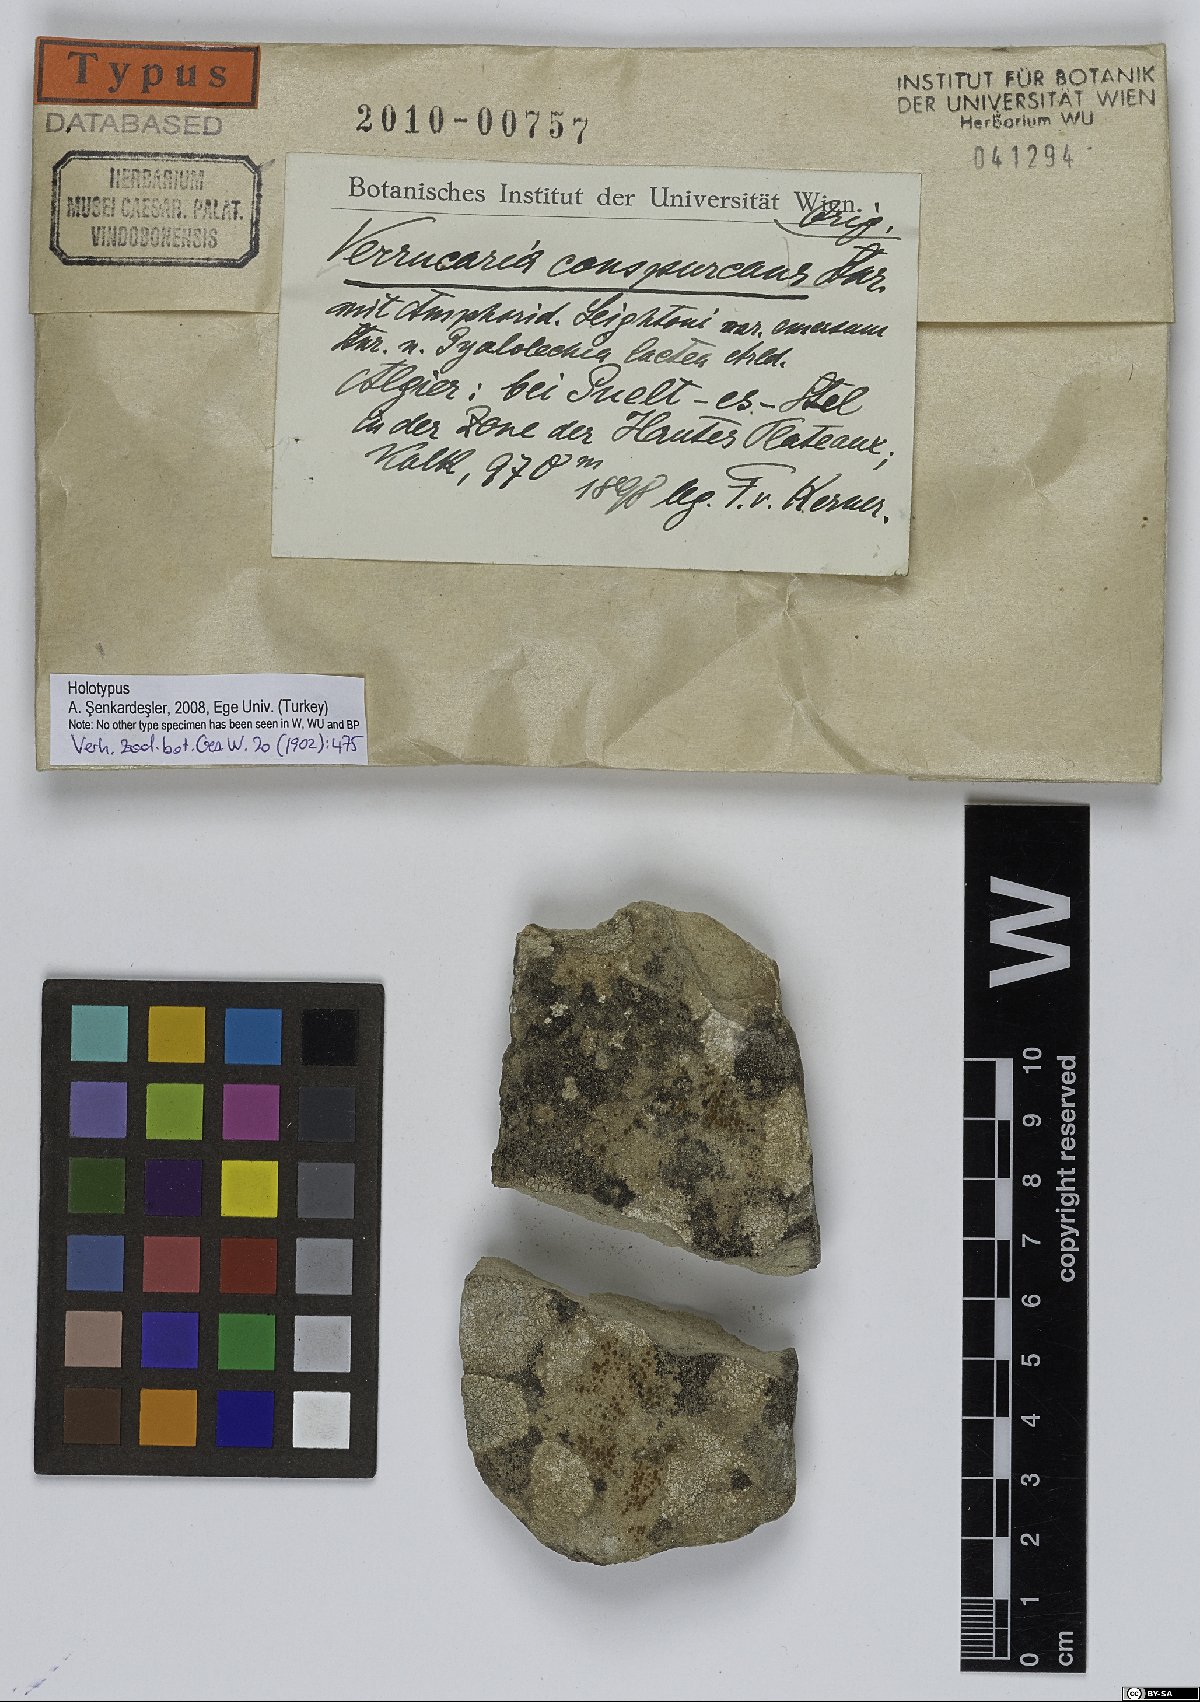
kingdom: Fungi
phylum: Ascomycota
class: Eurotiomycetes
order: Verrucariales
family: Verrucariaceae
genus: Verrucaria
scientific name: Verrucaria
